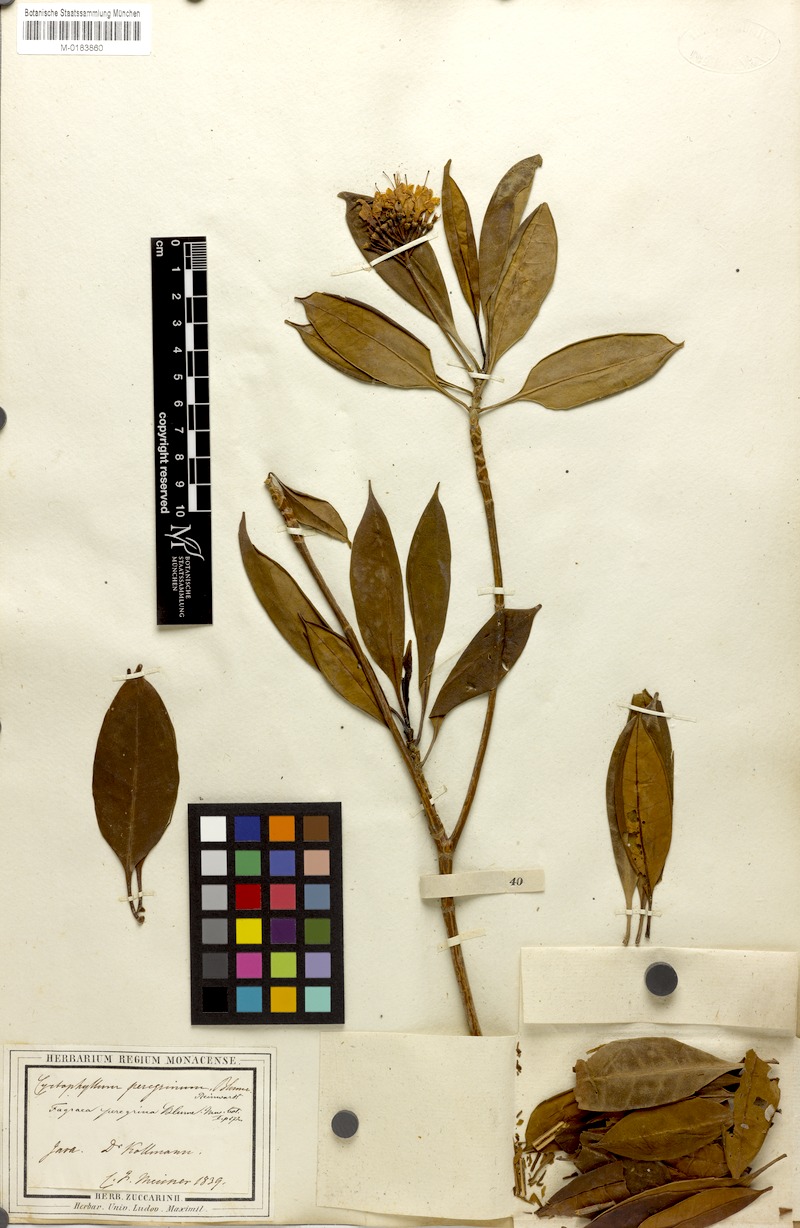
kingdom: Plantae
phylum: Tracheophyta
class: Magnoliopsida
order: Gentianales
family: Gentianaceae
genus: Cyrtophyllum
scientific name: Cyrtophyllum fragrans
